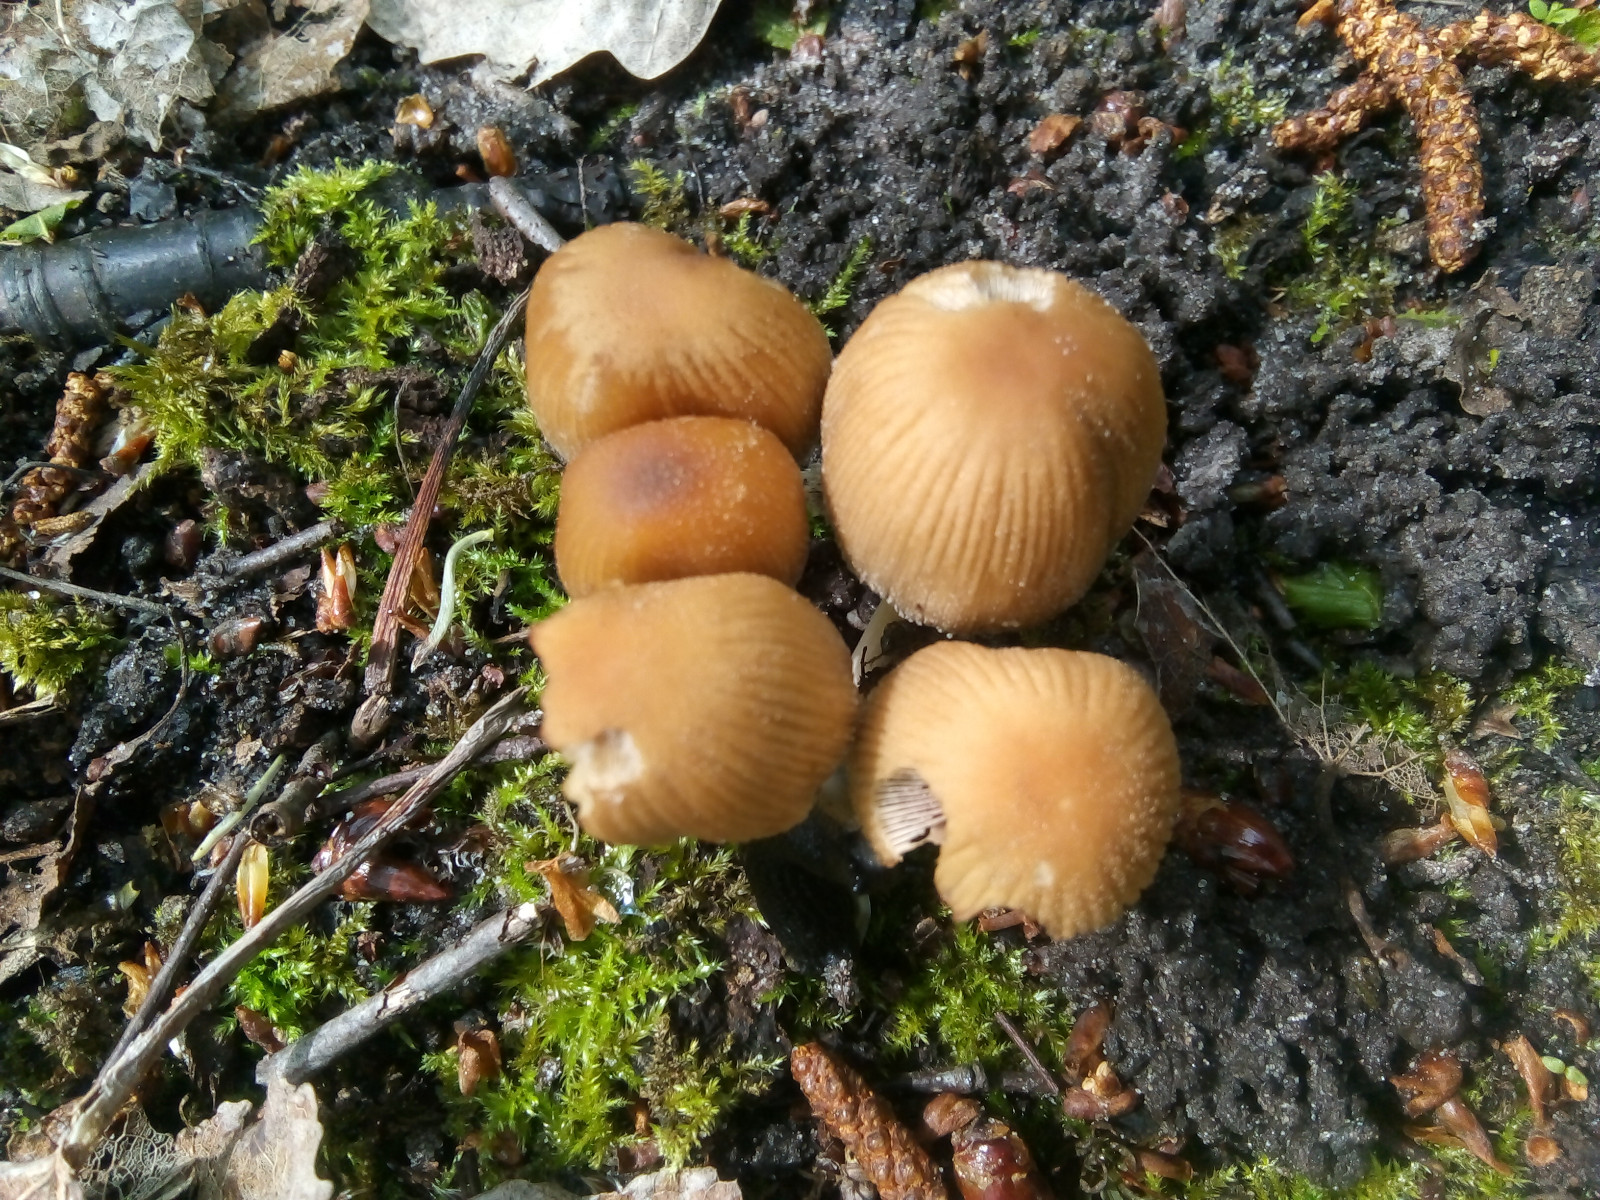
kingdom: Fungi
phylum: Basidiomycota
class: Agaricomycetes
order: Agaricales
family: Psathyrellaceae
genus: Coprinellus
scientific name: Coprinellus micaceus
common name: glimmer-blækhat
